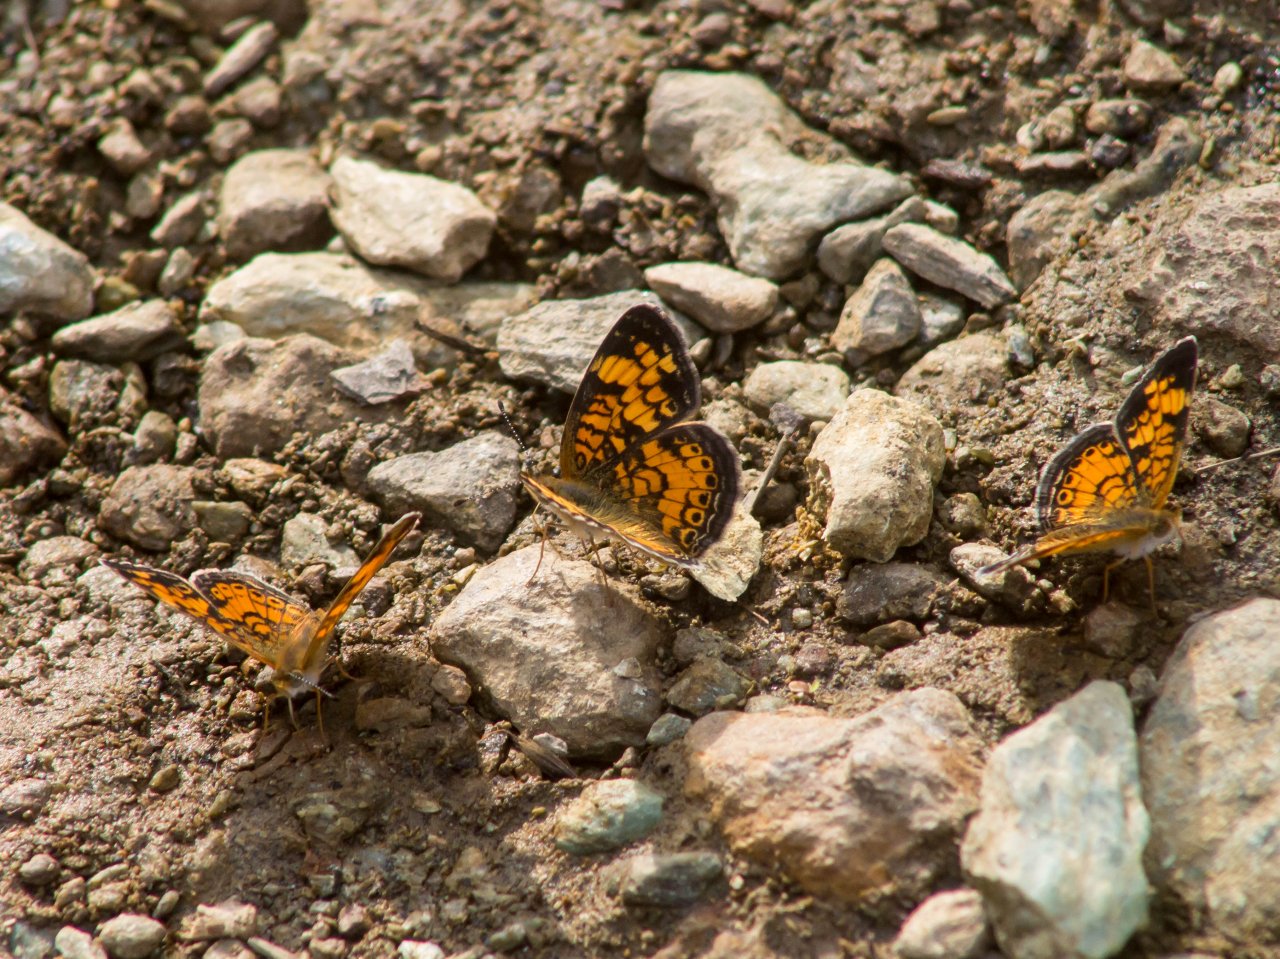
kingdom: Animalia
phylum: Arthropoda
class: Insecta
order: Lepidoptera
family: Nymphalidae
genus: Phyciodes
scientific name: Phyciodes tharos
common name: Pearl Crescent
